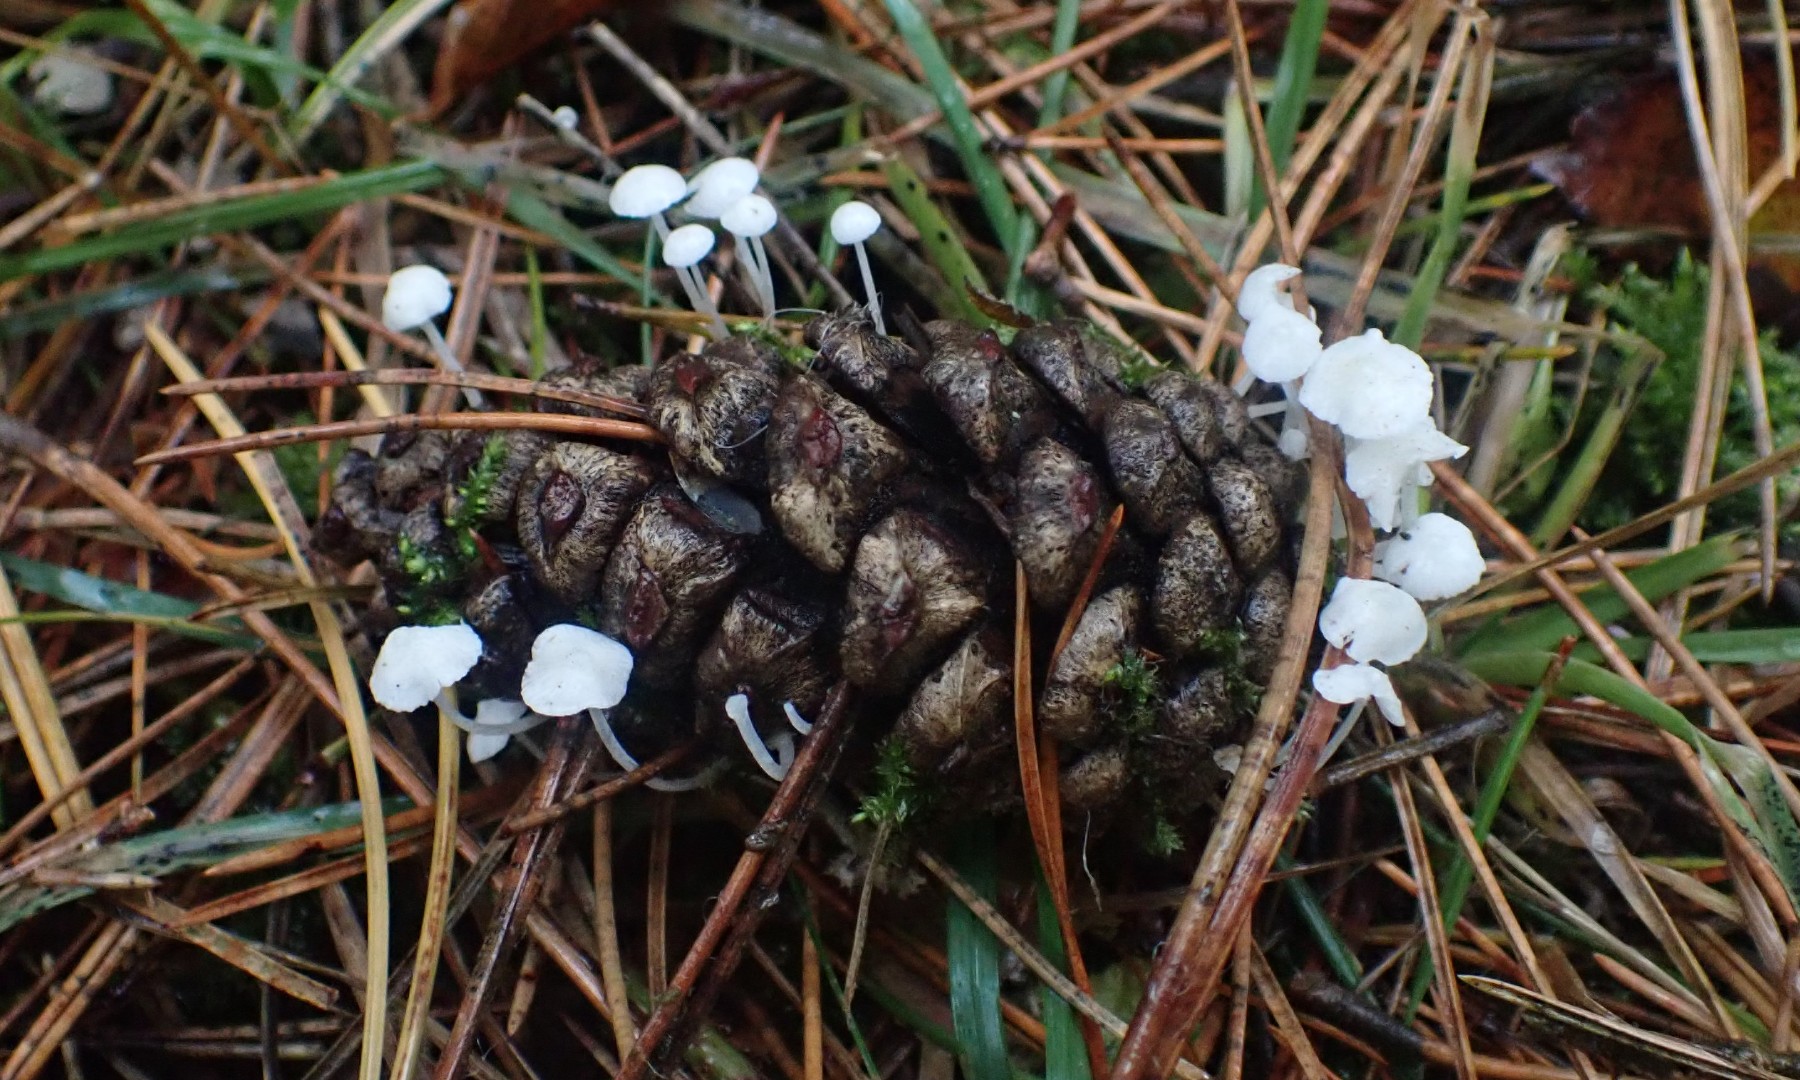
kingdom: Fungi
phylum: Basidiomycota
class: Agaricomycetes
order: Agaricales
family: Mycenaceae
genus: Hemimycena
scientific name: Hemimycena
